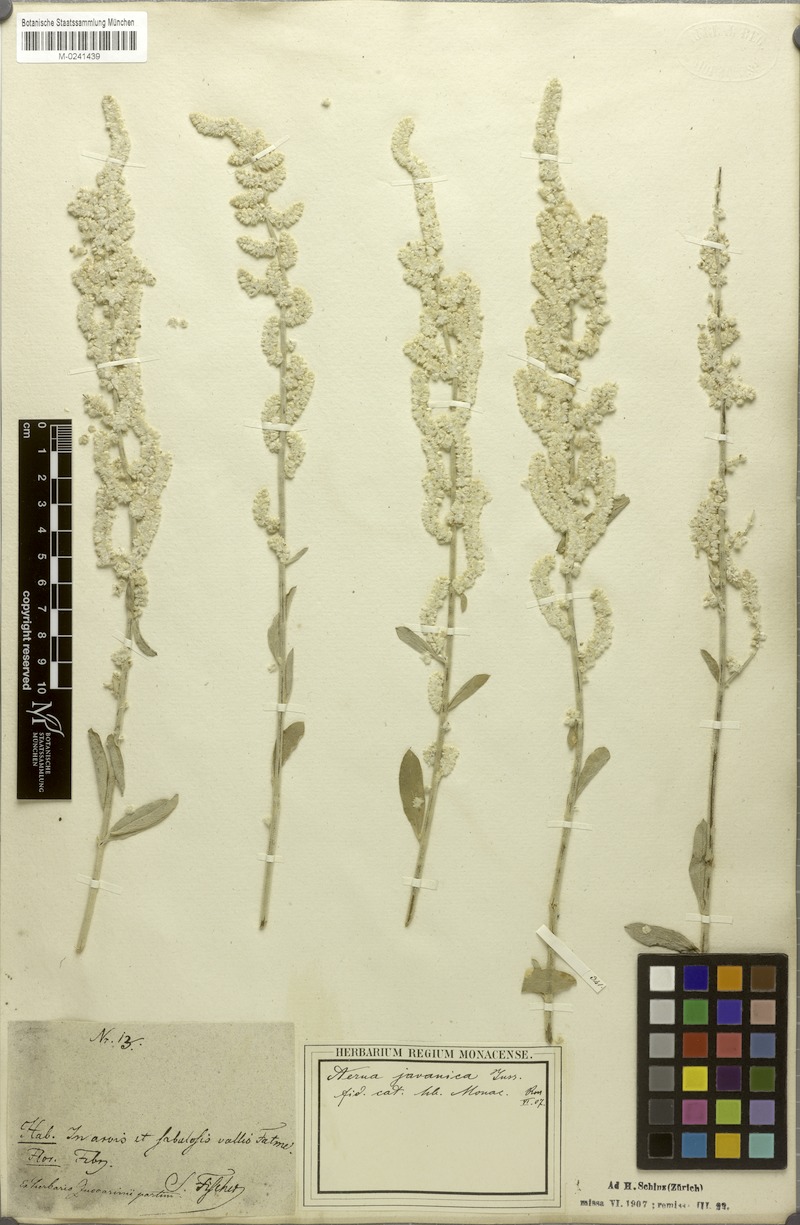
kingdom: Plantae
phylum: Tracheophyta
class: Magnoliopsida
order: Caryophyllales
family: Amaranthaceae
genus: Aerva
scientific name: Aerva javanica
